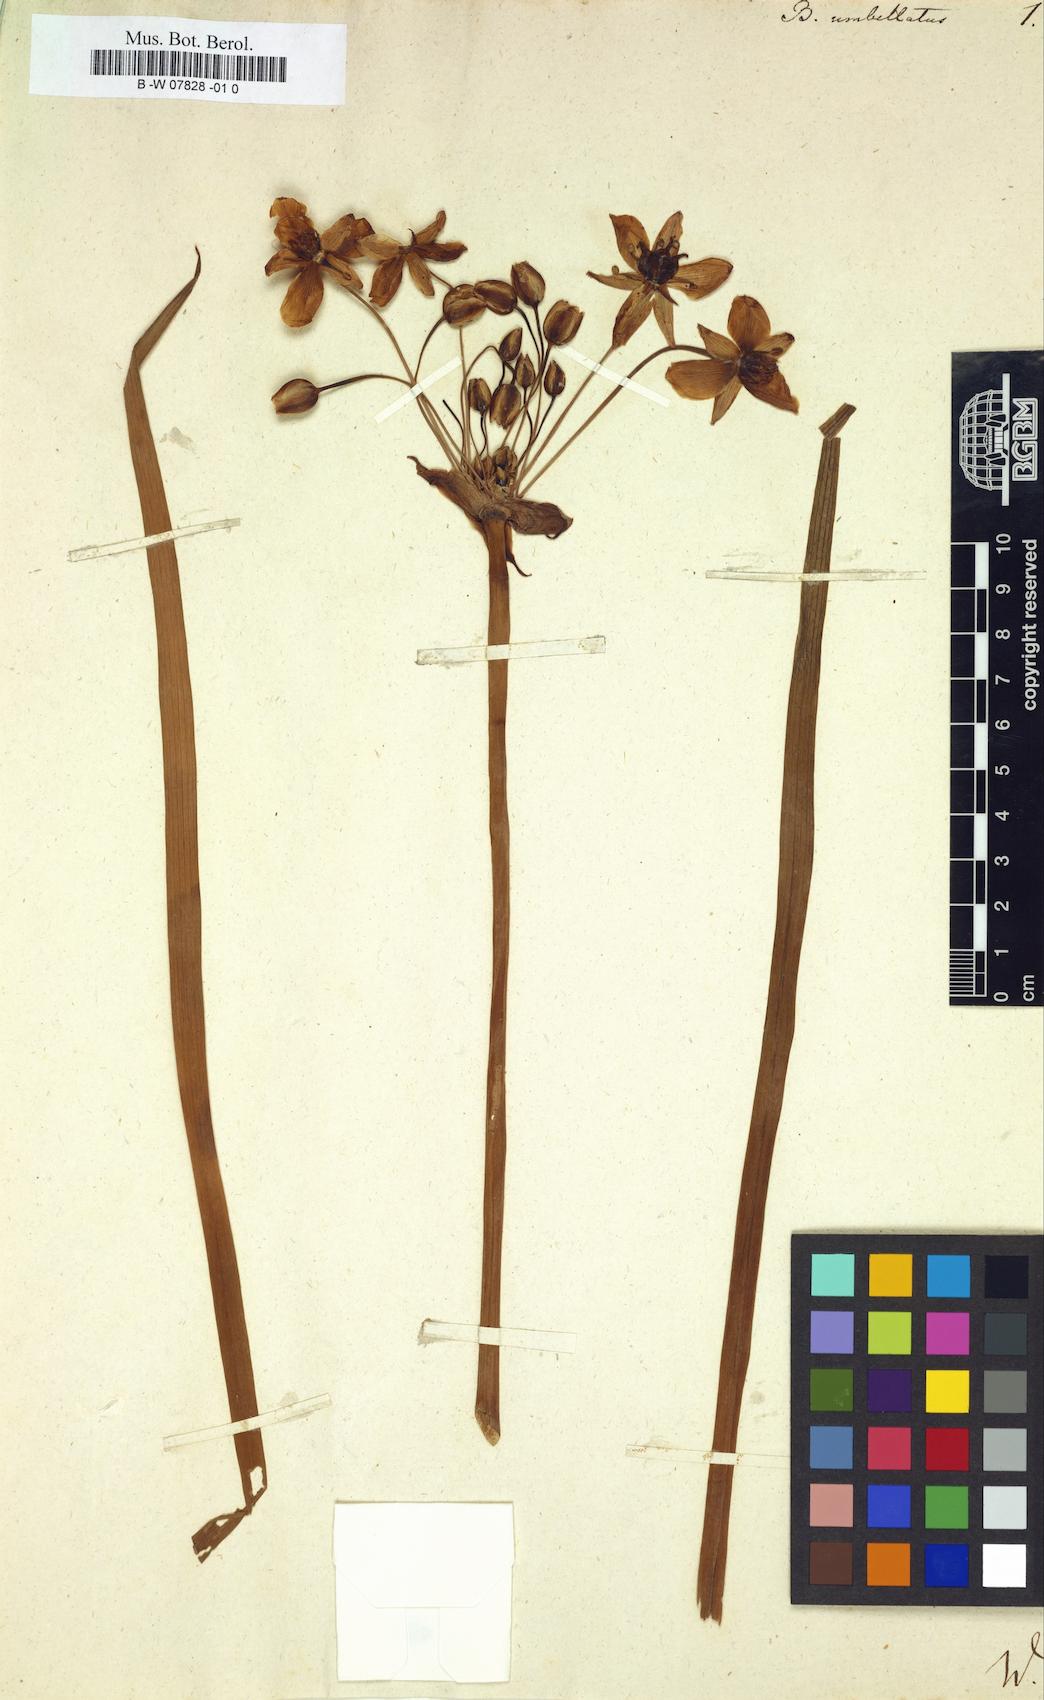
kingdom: Plantae
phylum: Tracheophyta
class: Liliopsida
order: Alismatales
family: Butomaceae
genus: Butomus
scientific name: Butomus umbellatus
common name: Flowering-rush
